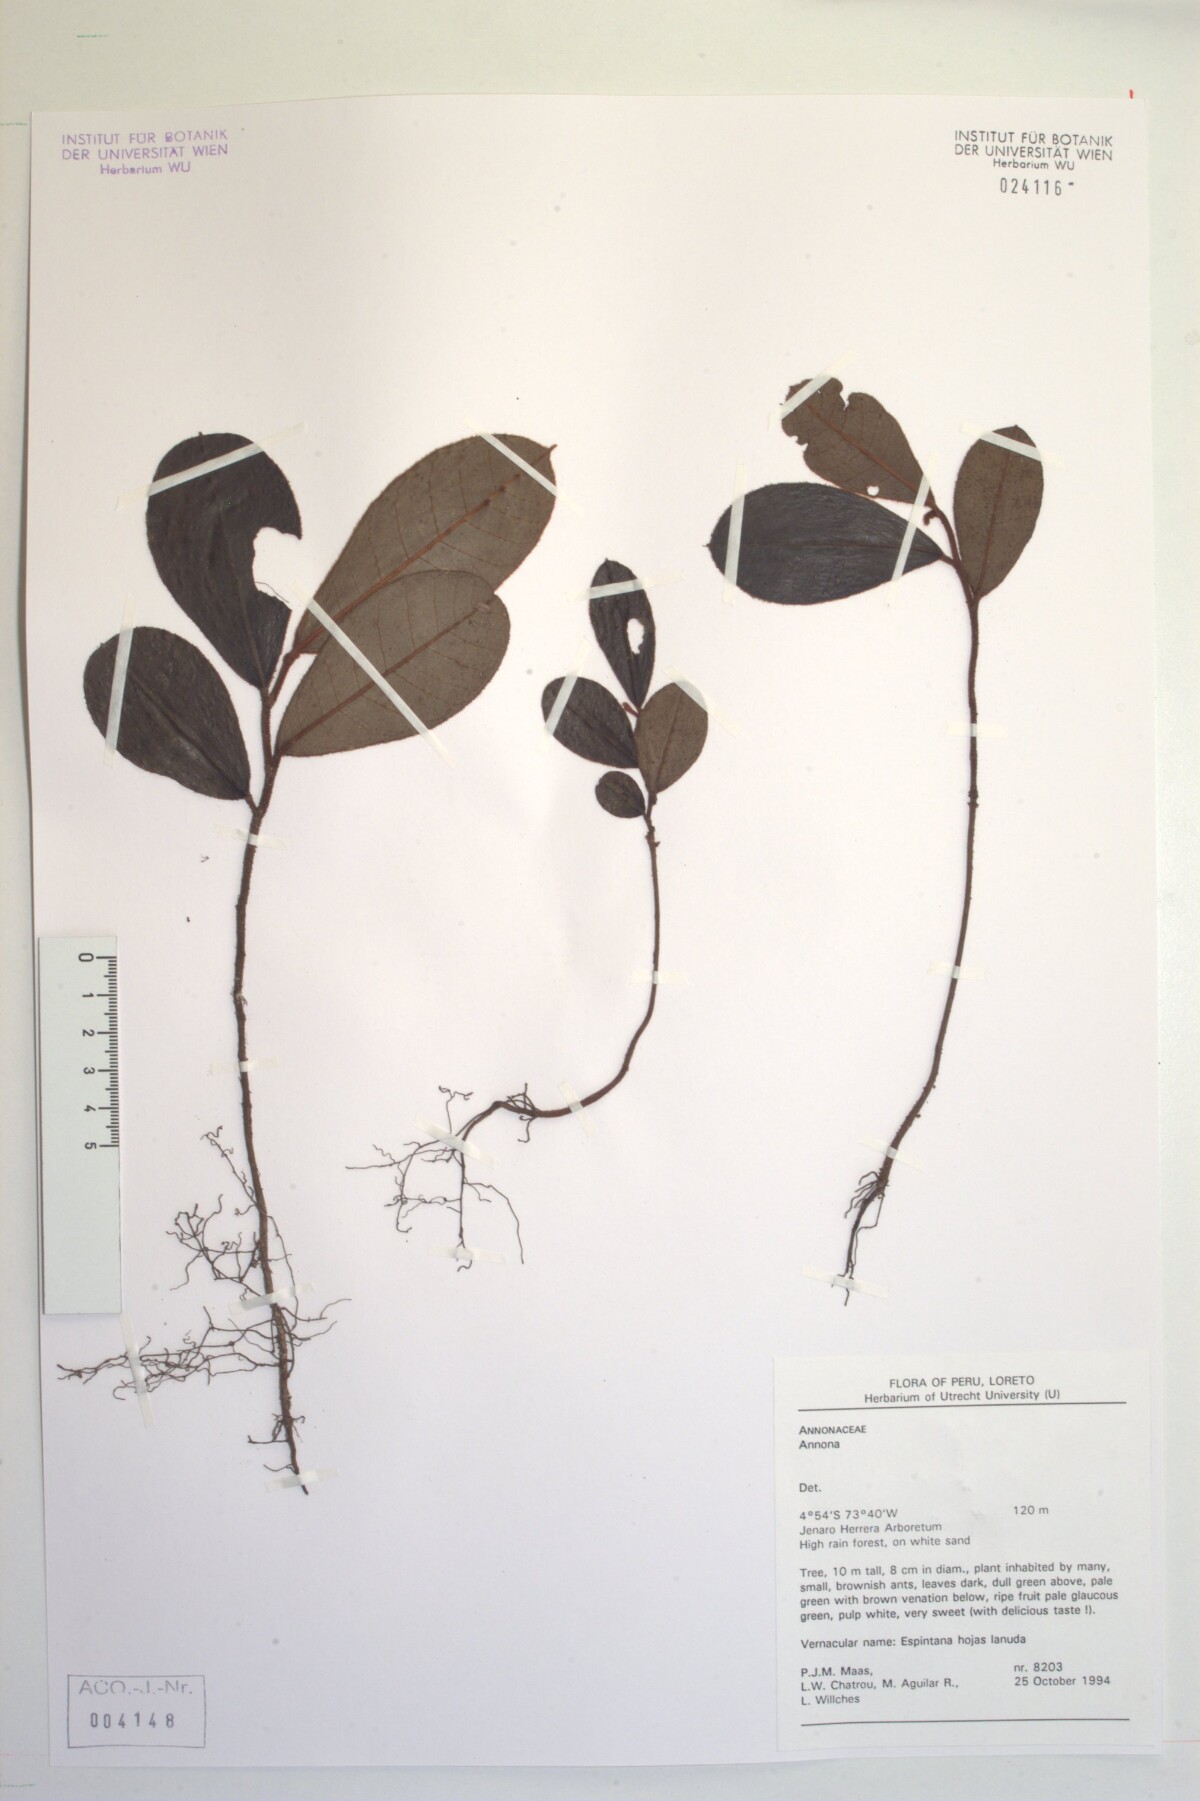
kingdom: Plantae
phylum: Tracheophyta
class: Magnoliopsida
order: Magnoliales
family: Annonaceae
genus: Annona
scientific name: Annona
